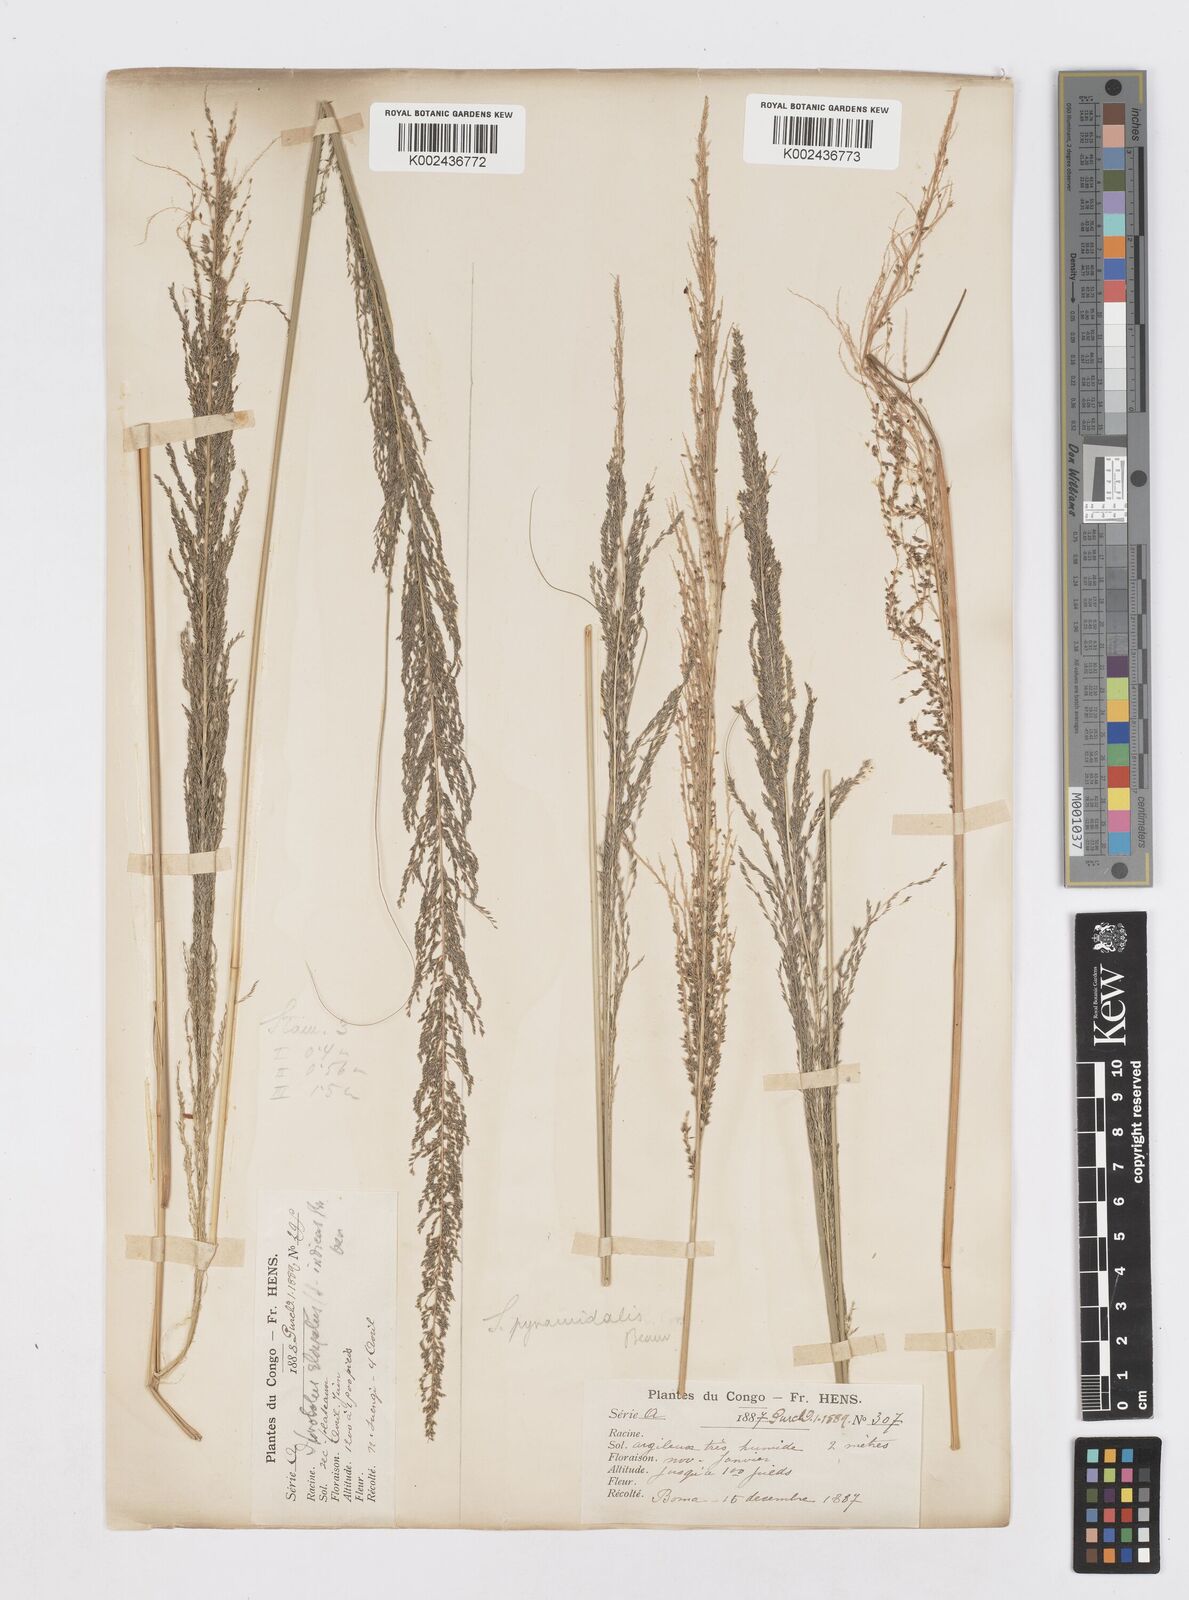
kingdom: Plantae
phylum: Tracheophyta
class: Liliopsida
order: Poales
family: Poaceae
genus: Sporobolus
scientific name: Sporobolus pyramidalis
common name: West indian dropseed
